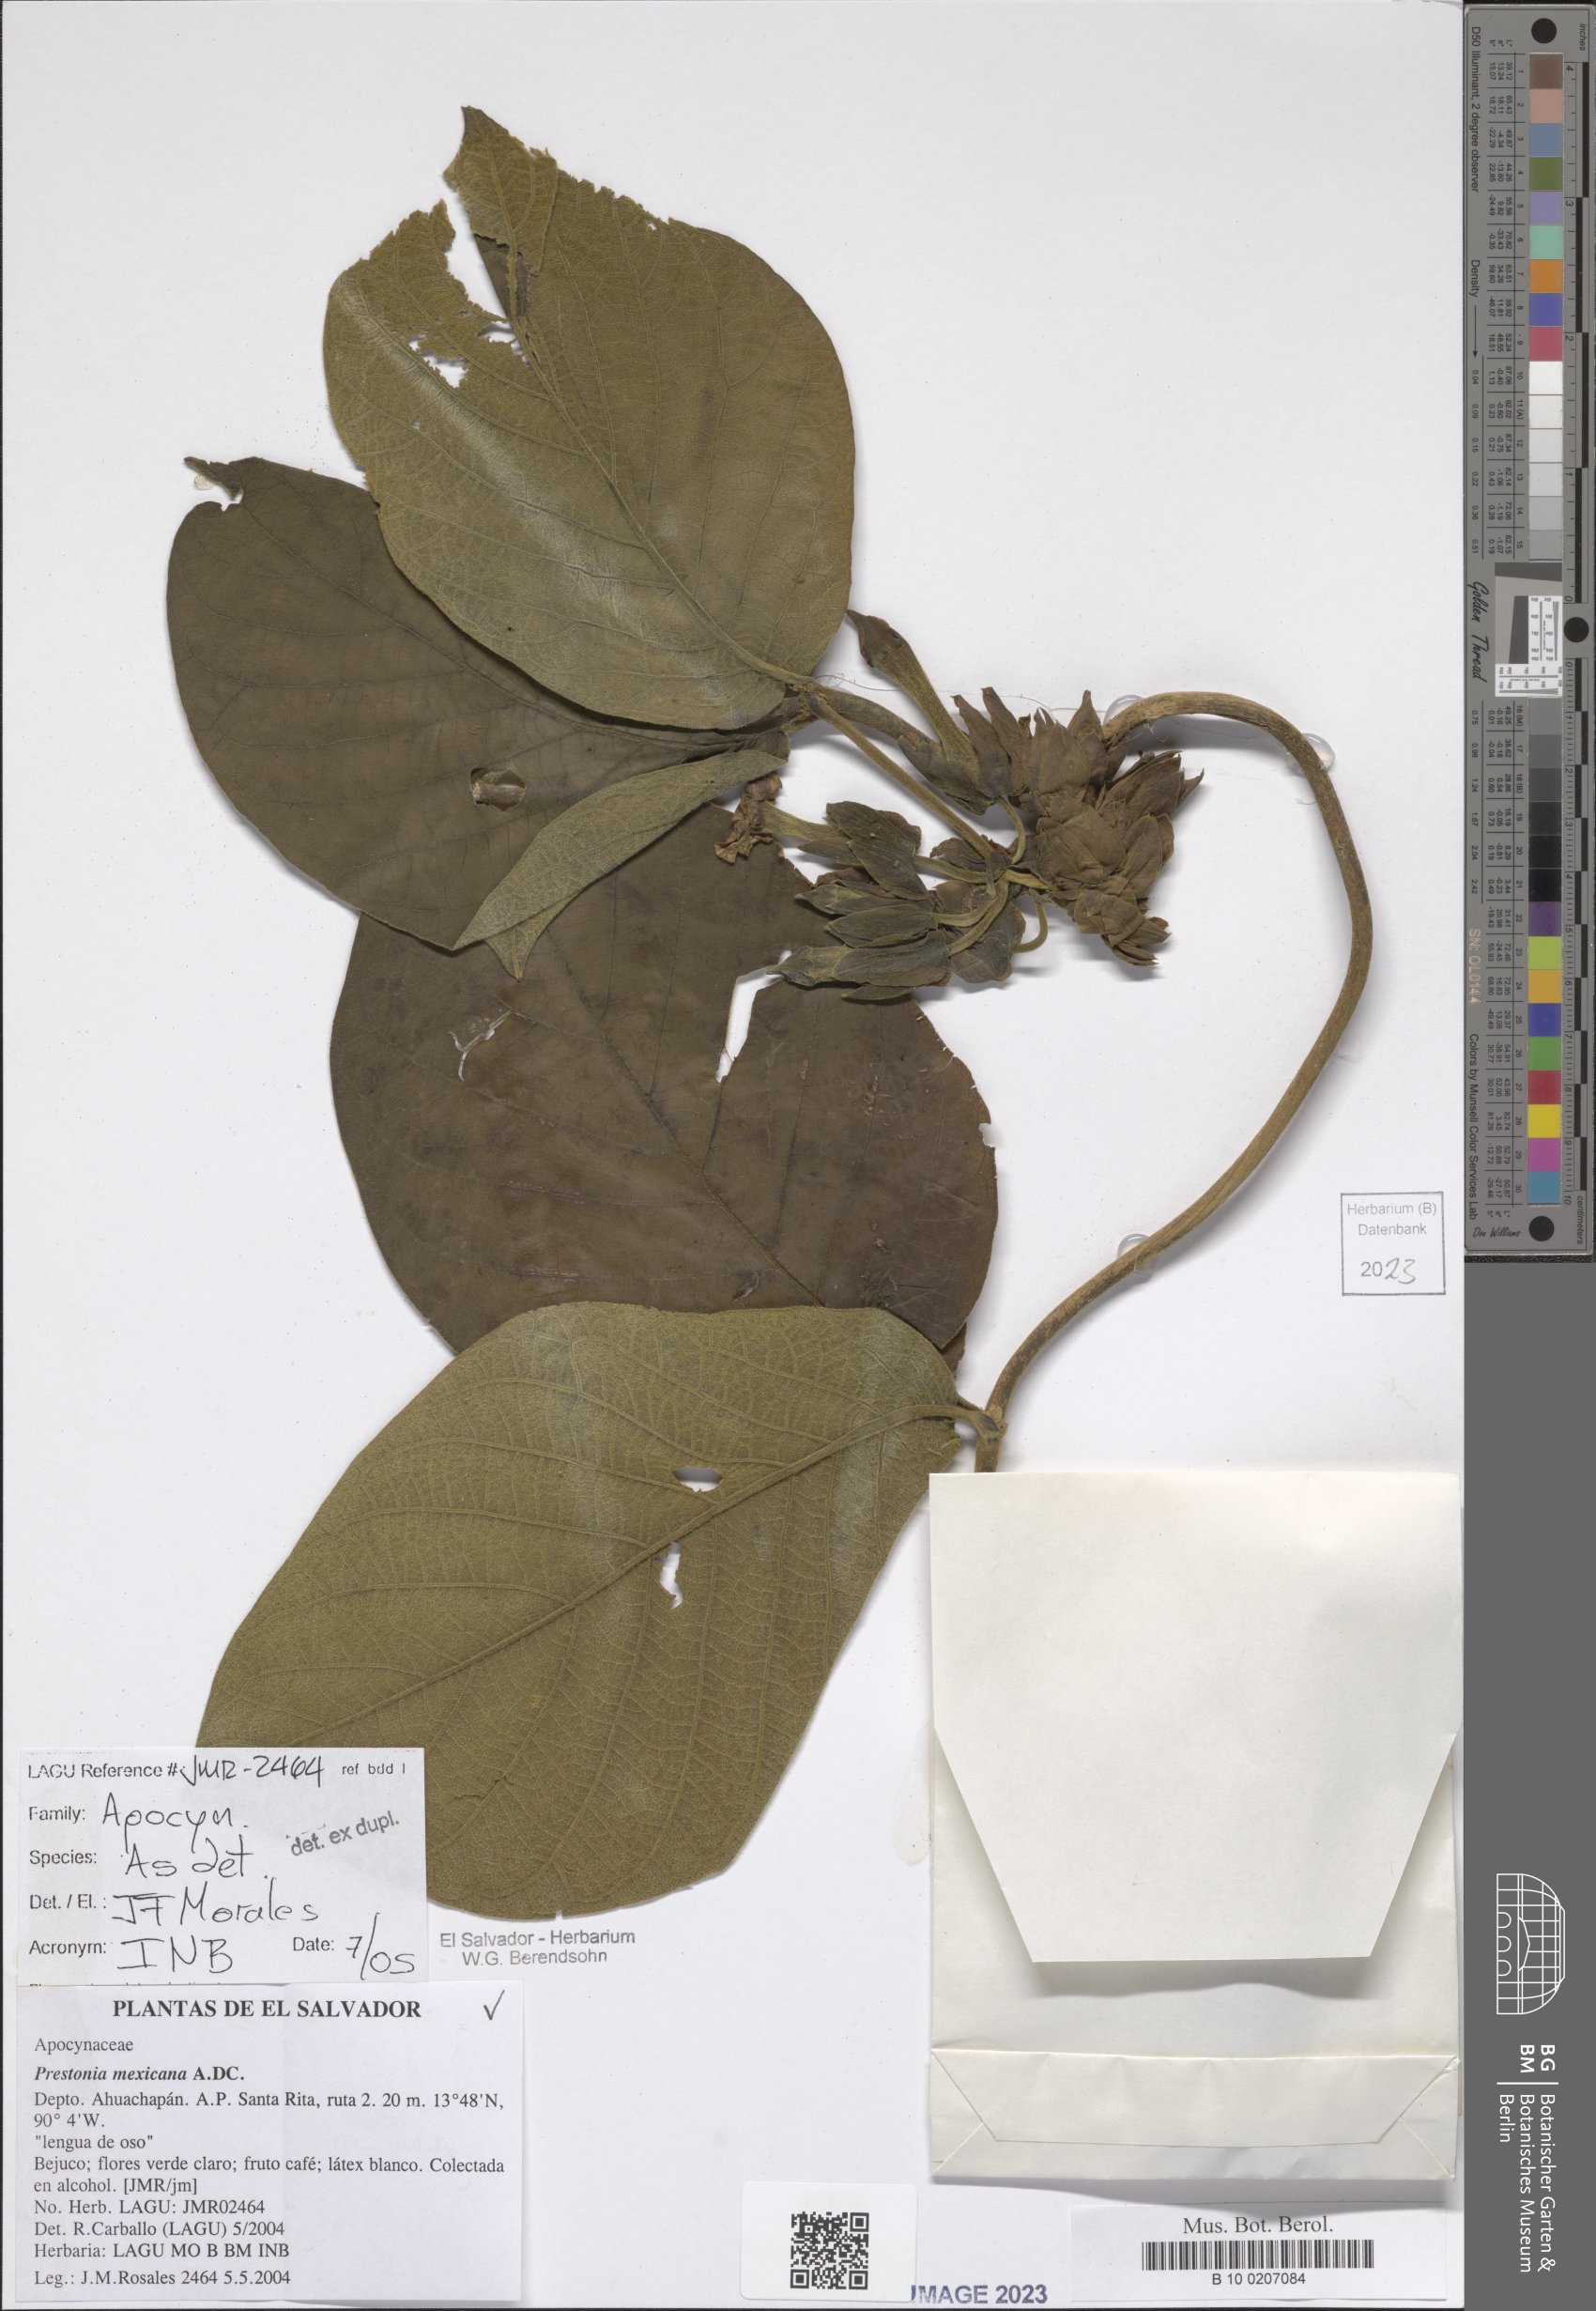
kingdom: Plantae
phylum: Tracheophyta
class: Magnoliopsida
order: Gentianales
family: Apocynaceae
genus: Prestonia
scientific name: Prestonia mexicana
